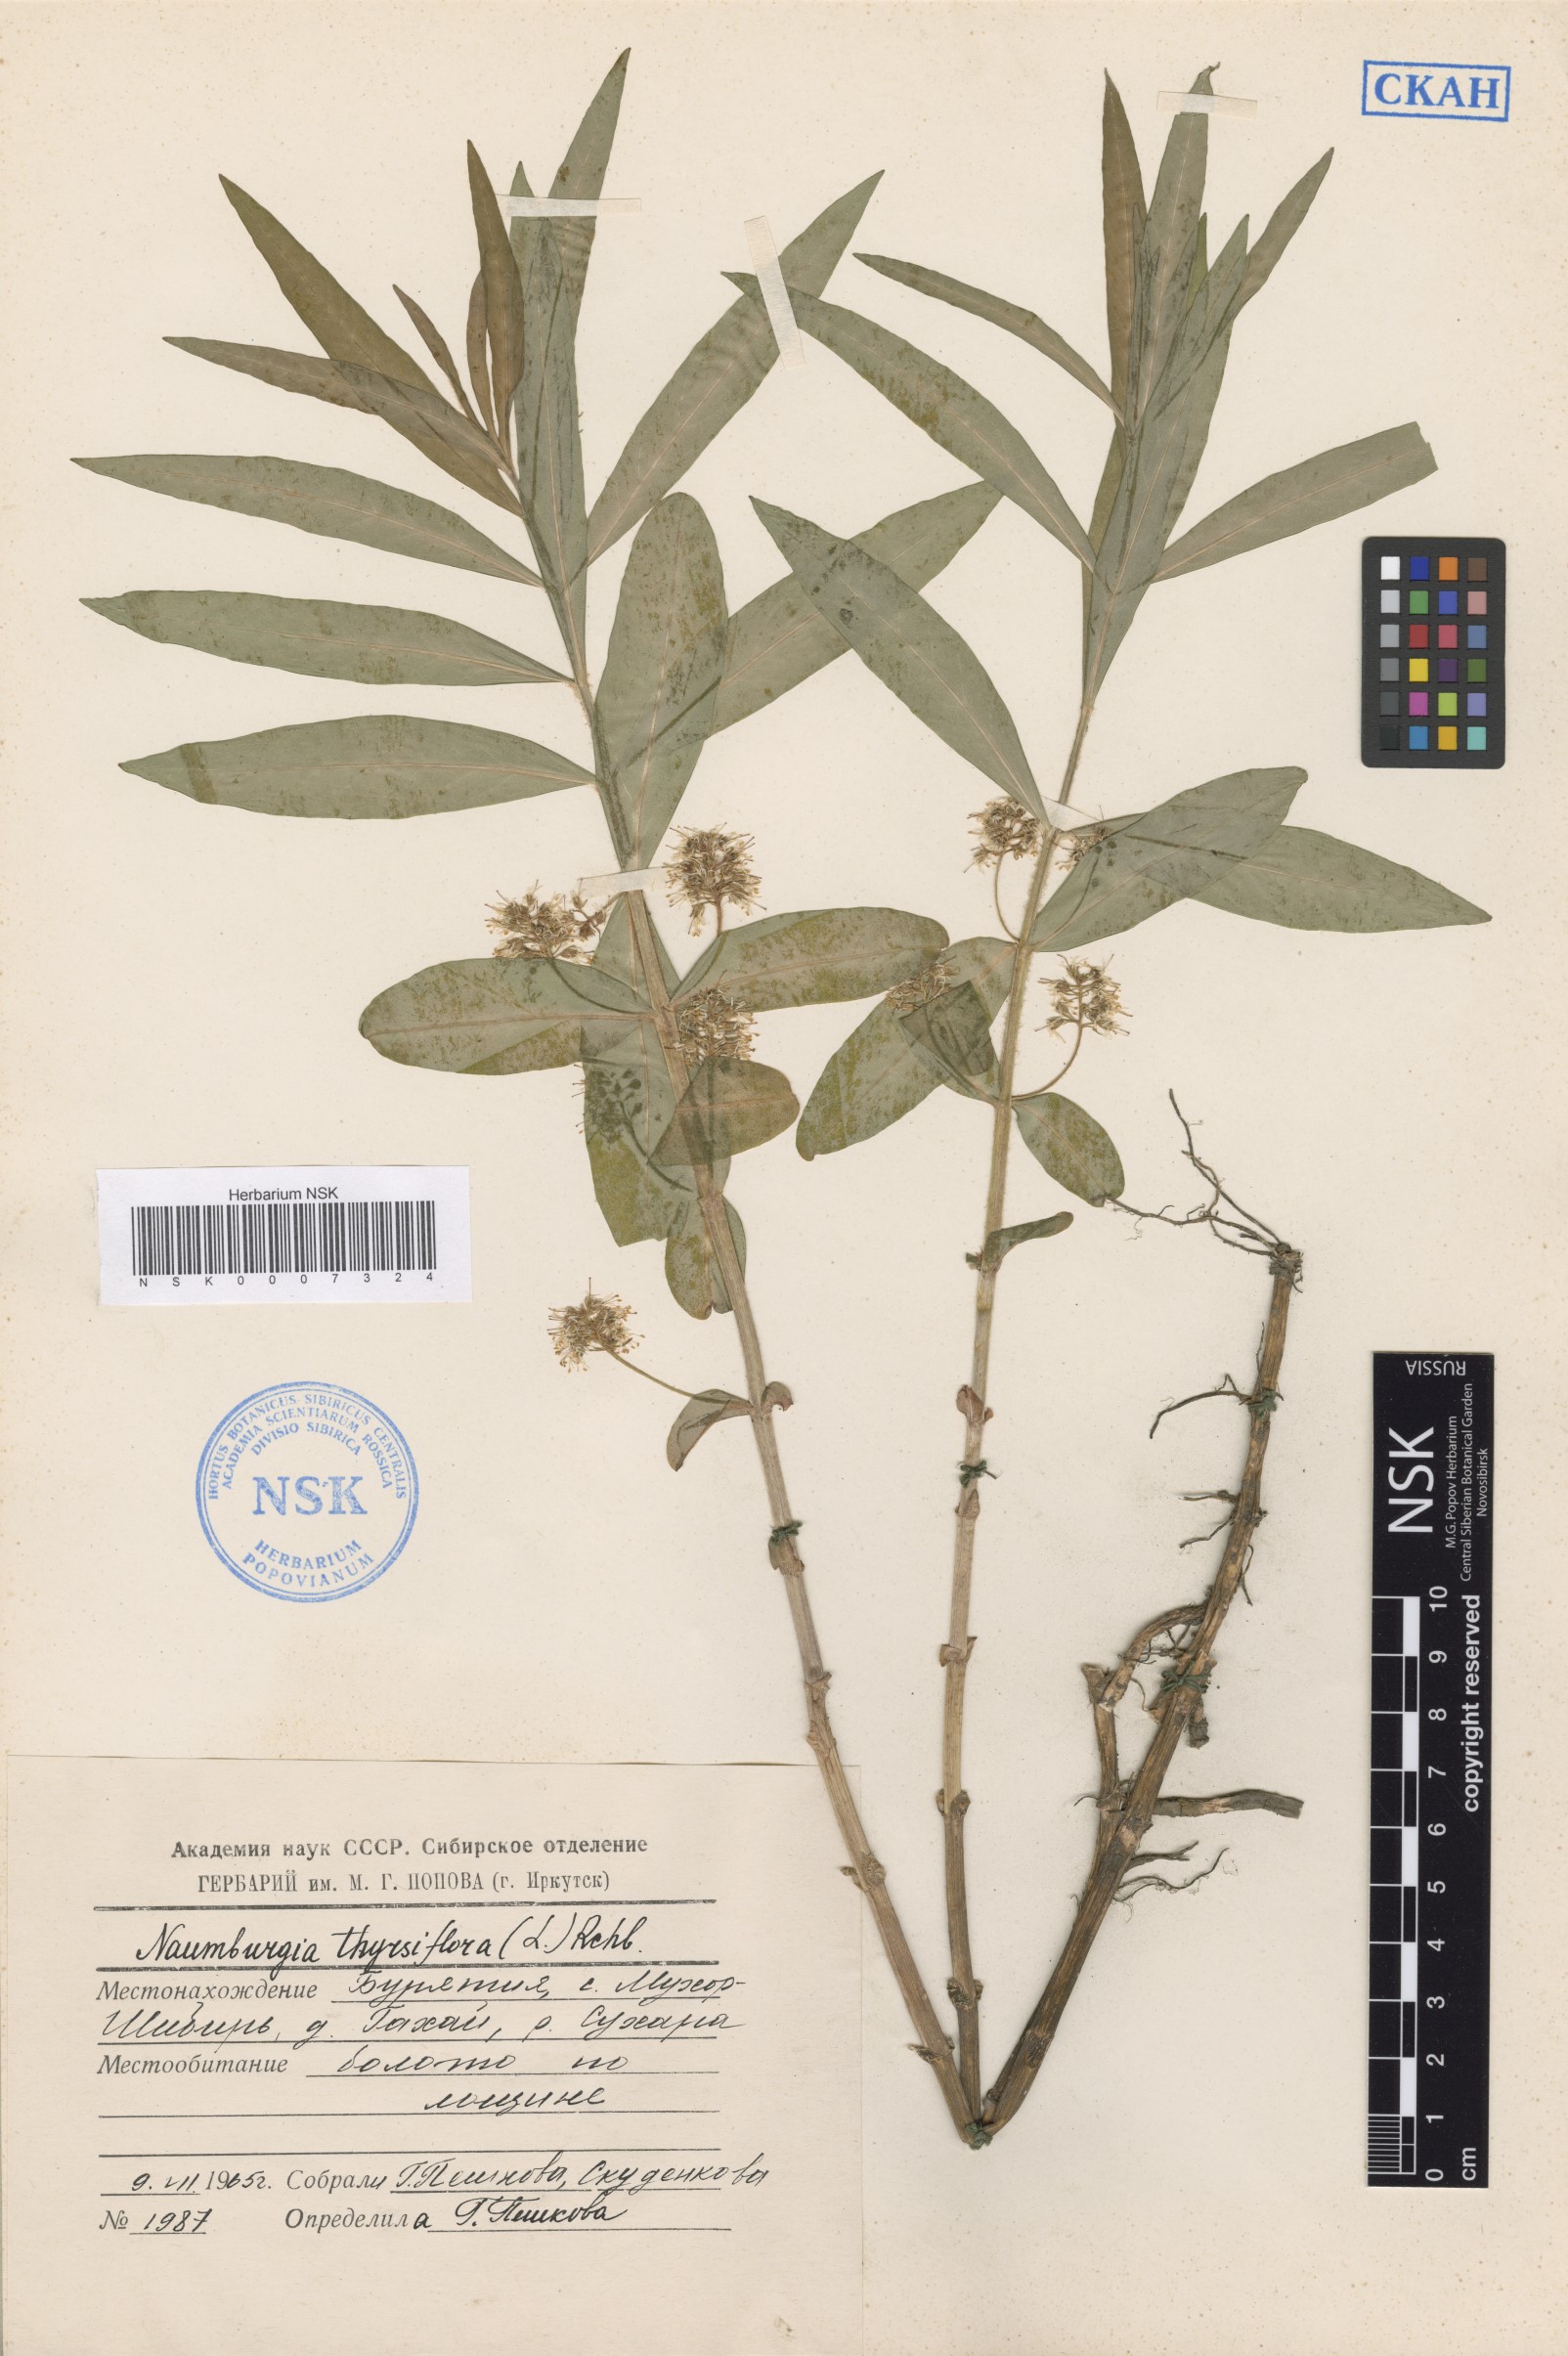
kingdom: Plantae
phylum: Tracheophyta
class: Magnoliopsida
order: Ericales
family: Primulaceae
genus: Lysimachia
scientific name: Lysimachia thyrsiflora
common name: Tufted loosestrife
